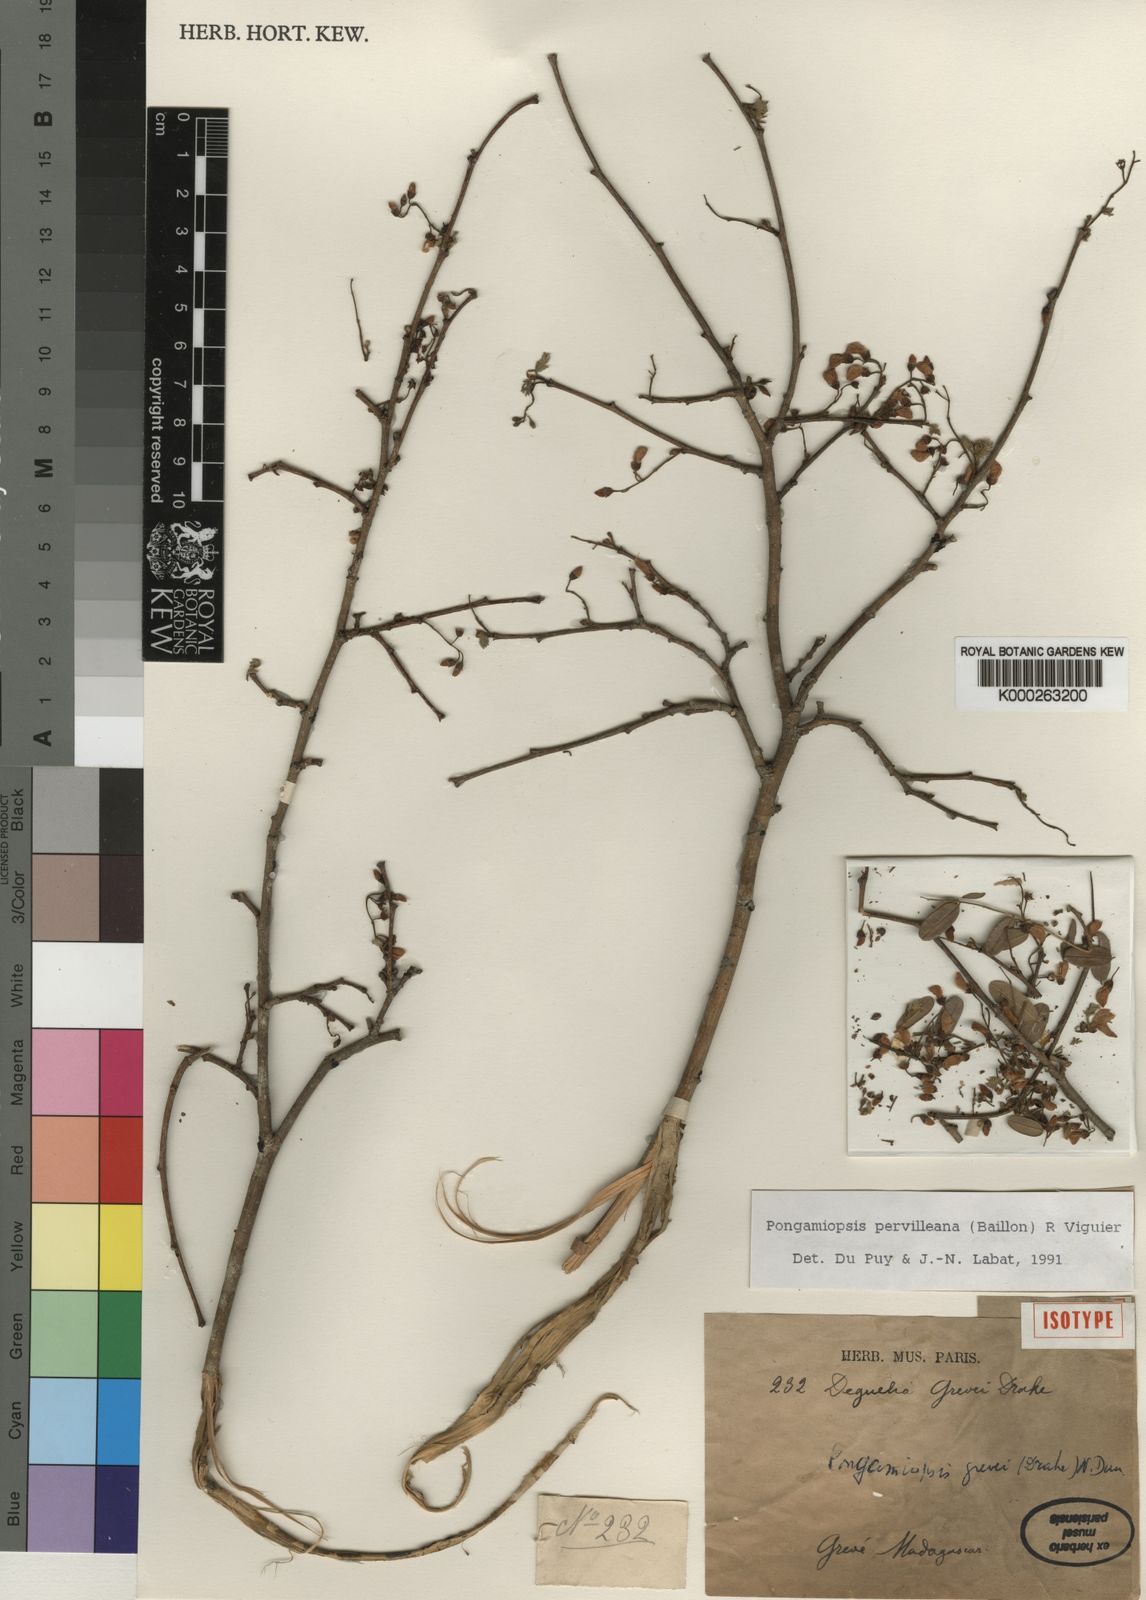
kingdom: Plantae
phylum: Tracheophyta
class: Magnoliopsida
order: Fabales
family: Fabaceae
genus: Pongamiopsis
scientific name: Pongamiopsis pervilleana
